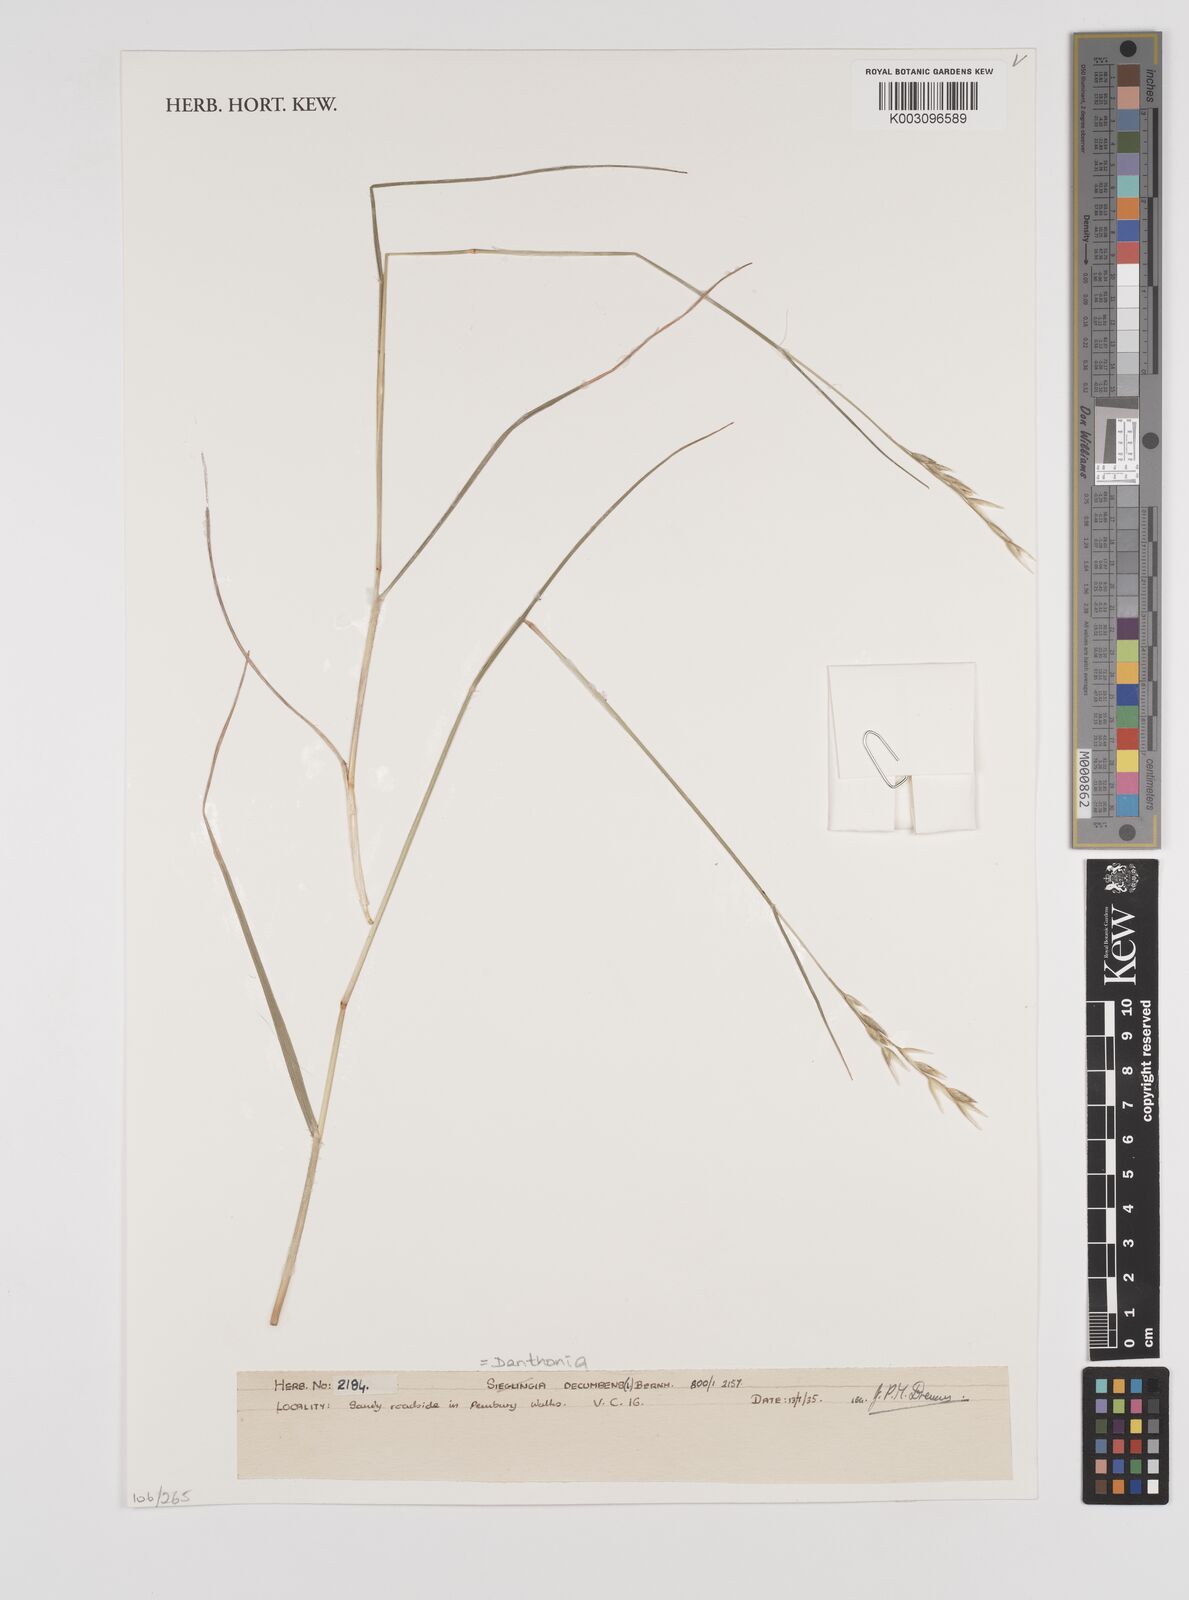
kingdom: Plantae
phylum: Tracheophyta
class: Liliopsida
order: Poales
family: Poaceae
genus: Danthonia
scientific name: Danthonia decumbens
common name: Common heathgrass
